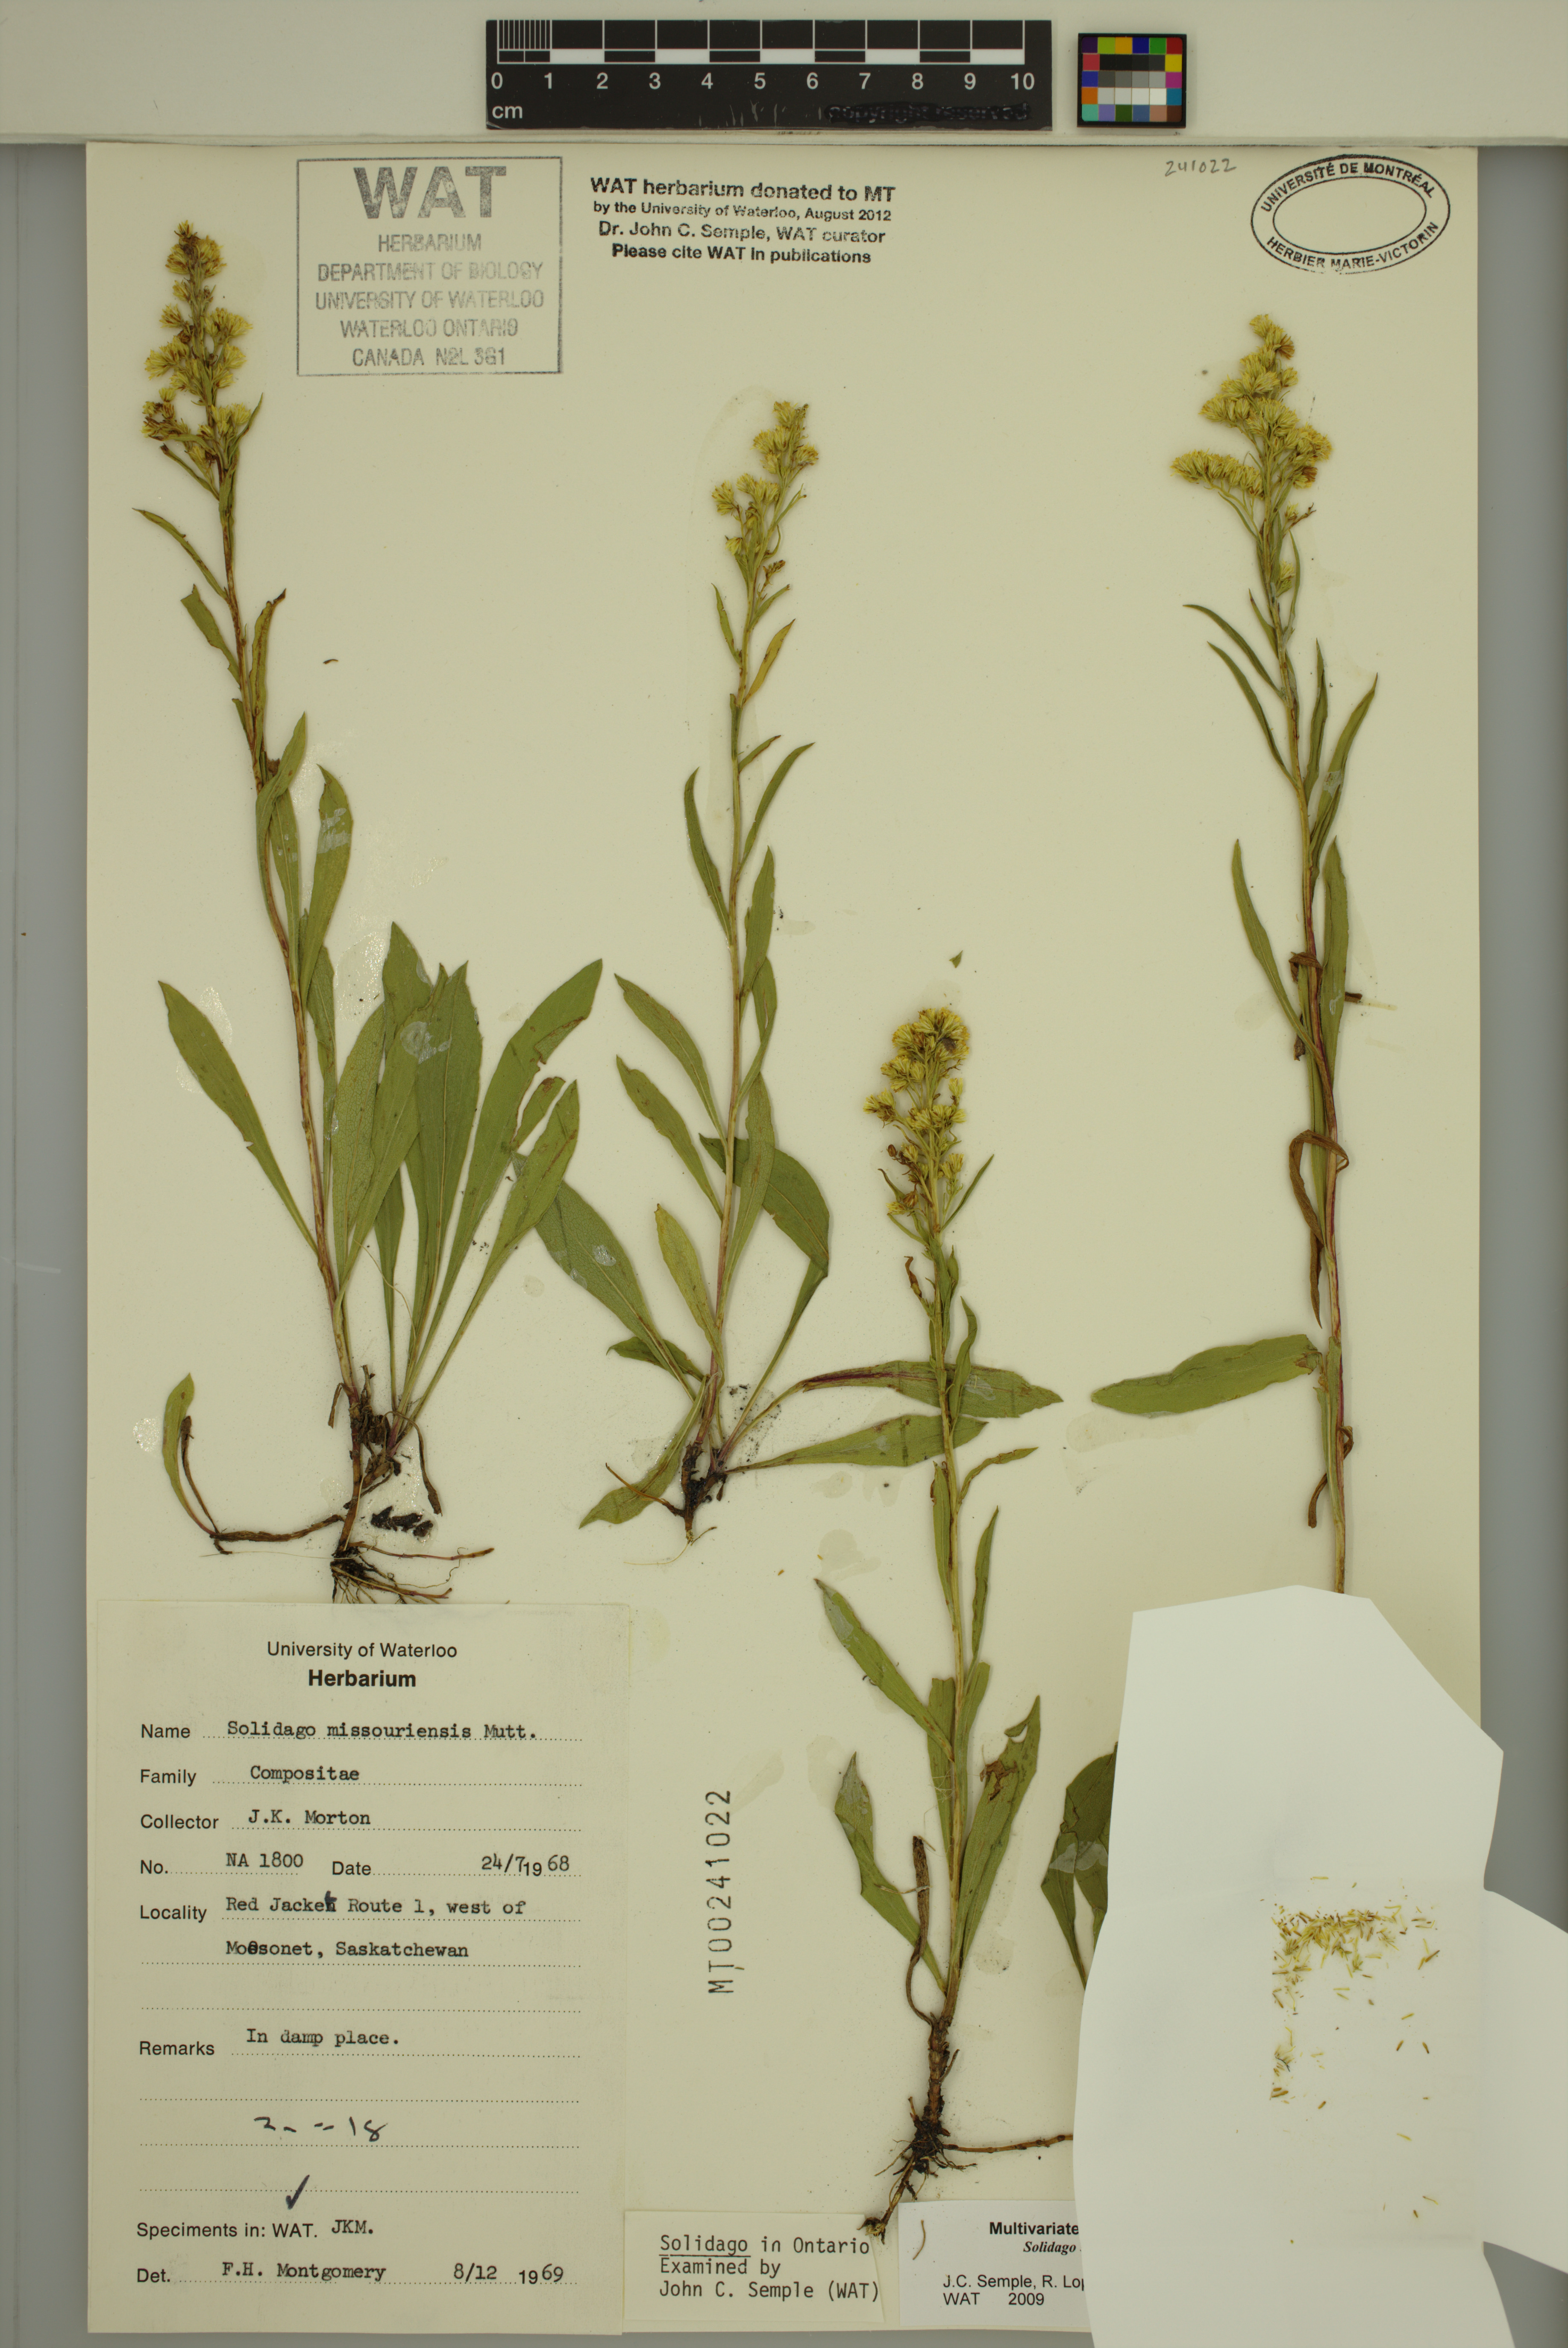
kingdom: Plantae
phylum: Tracheophyta
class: Magnoliopsida
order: Asterales
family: Asteraceae
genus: Solidago
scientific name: Solidago missouriensis
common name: Prairie goldenrod
